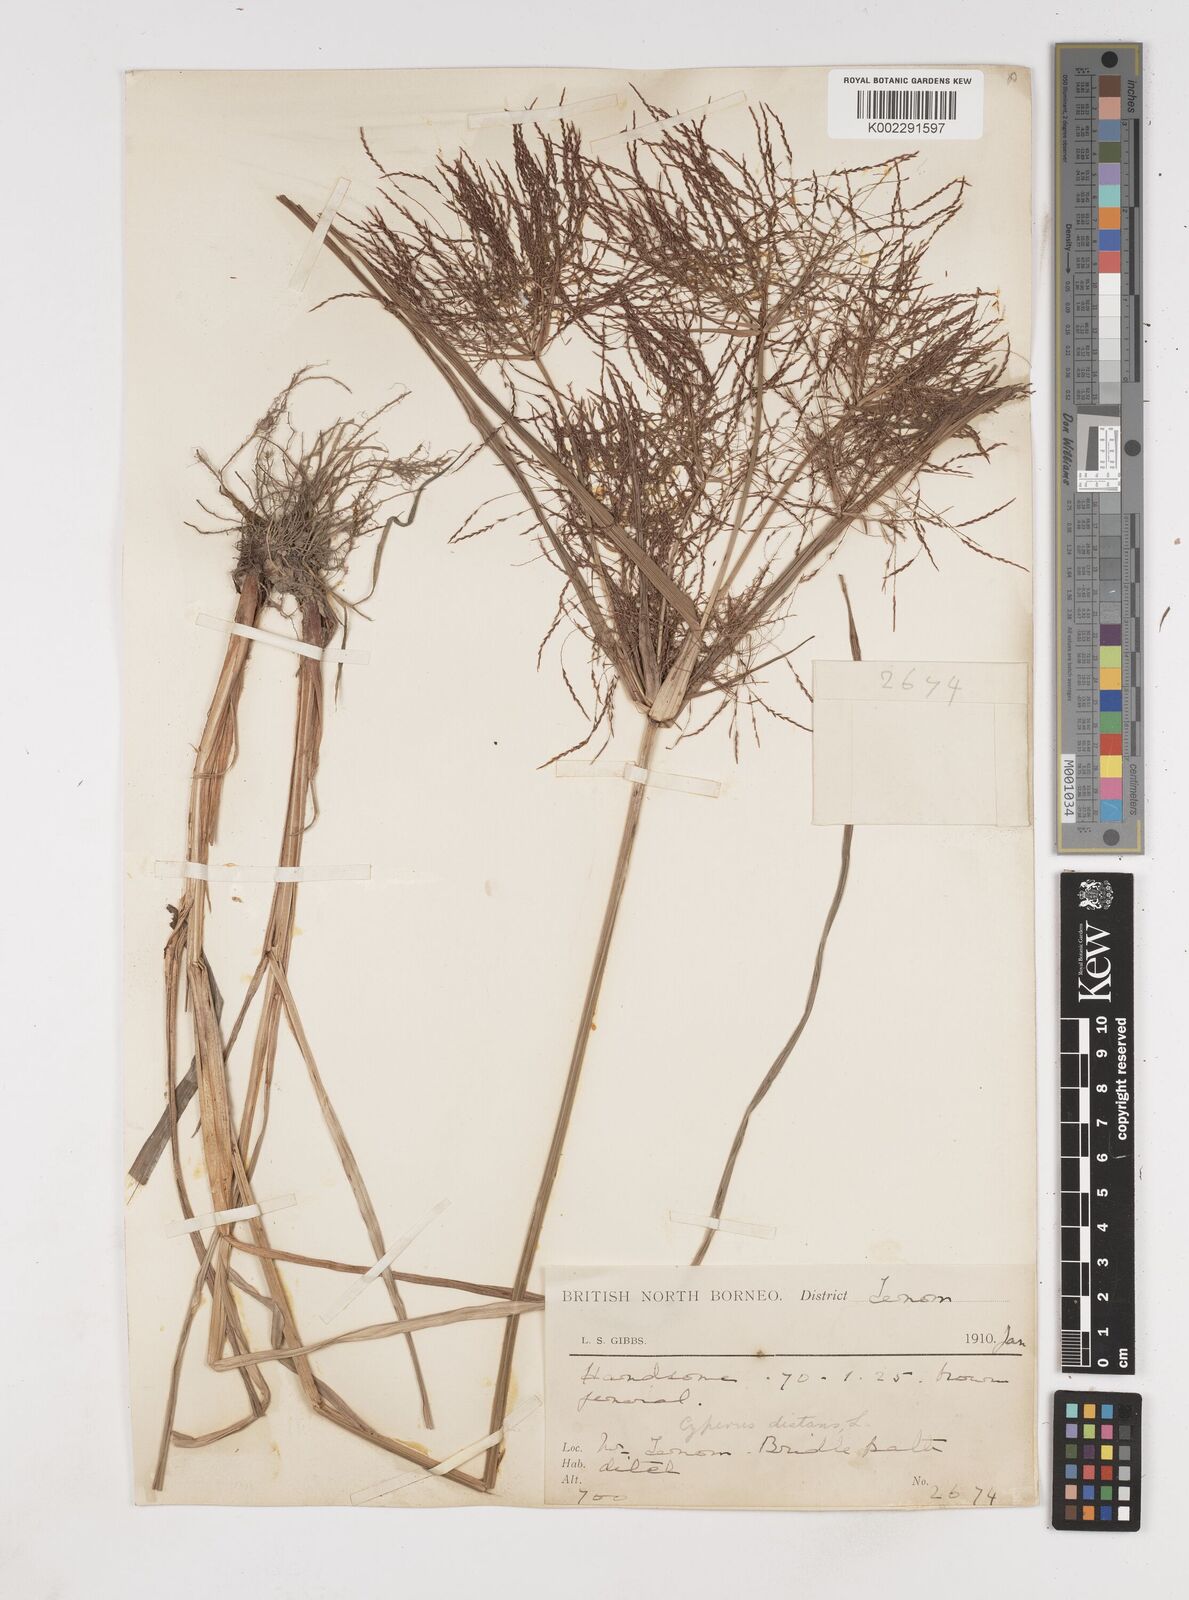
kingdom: Plantae
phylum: Tracheophyta
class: Liliopsida
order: Poales
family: Cyperaceae
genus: Cyperus
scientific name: Cyperus distans
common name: Slender cyperus
